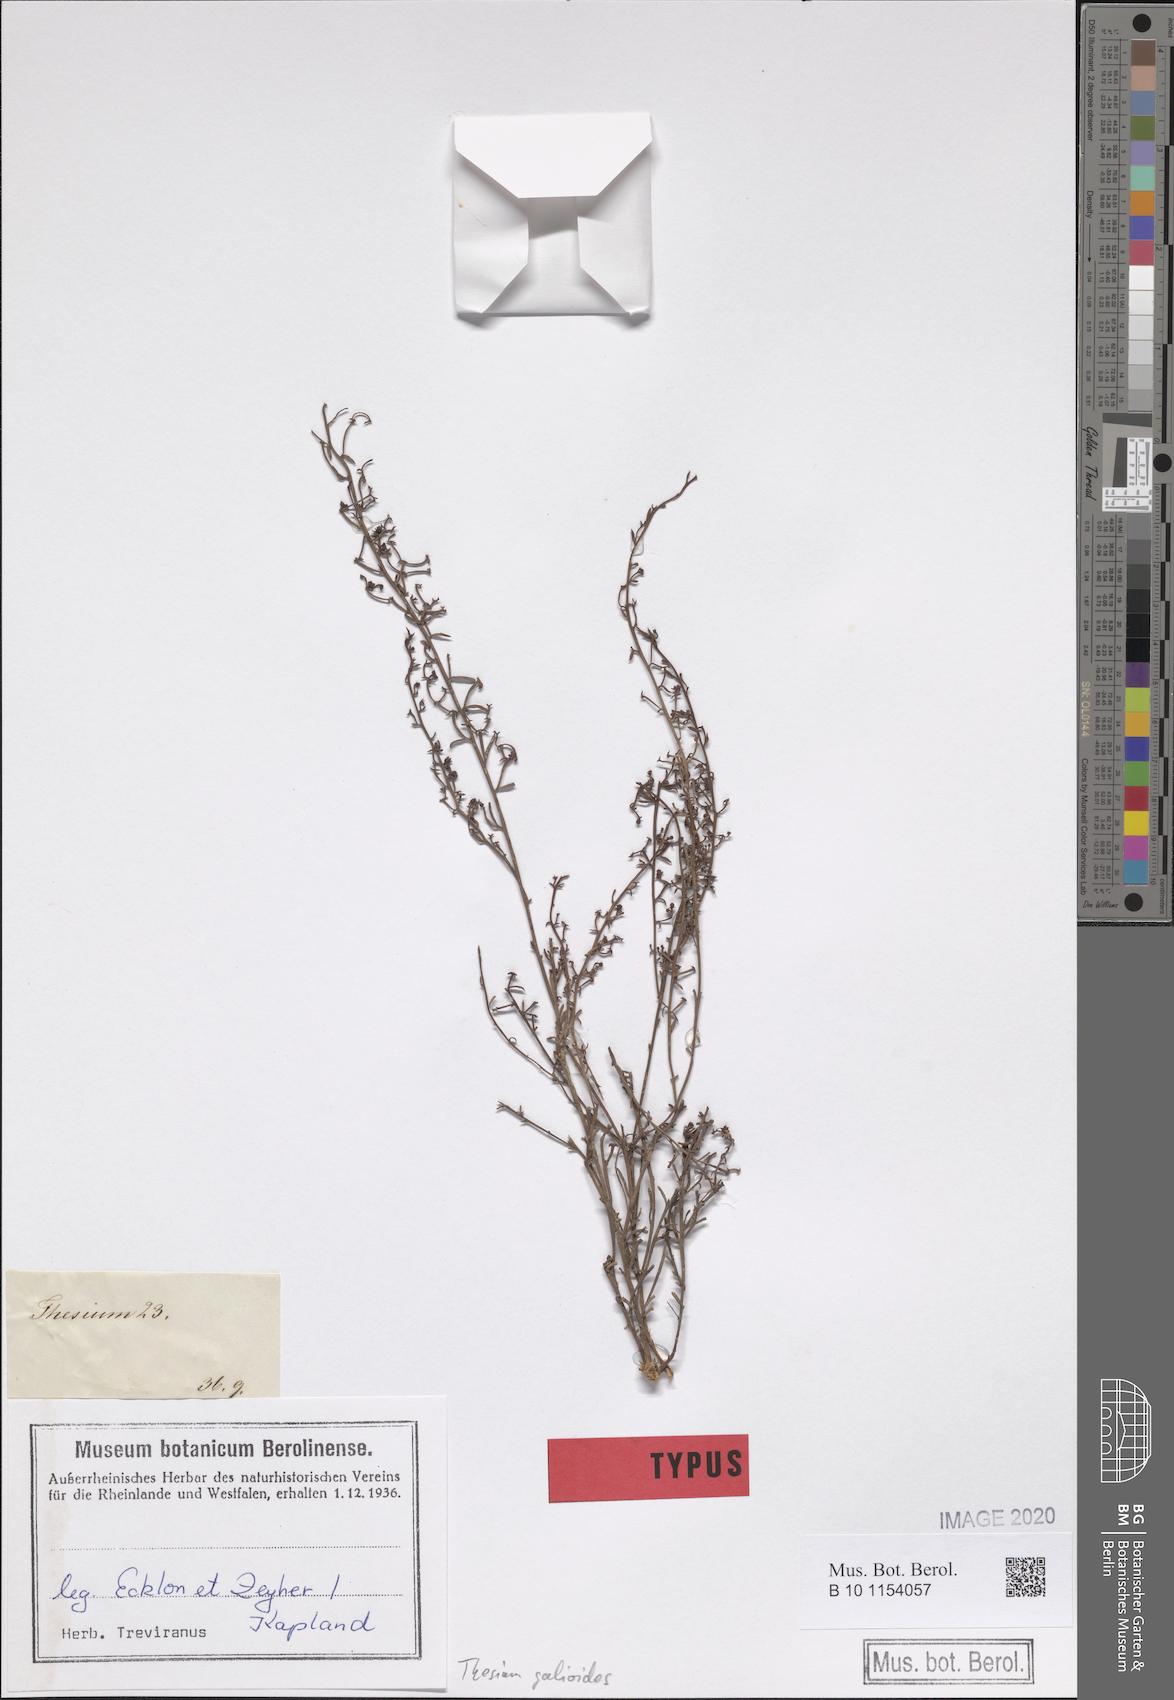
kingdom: Plantae
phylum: Tracheophyta
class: Magnoliopsida
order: Santalales
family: Thesiaceae
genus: Thesium
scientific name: Thesium galioides
